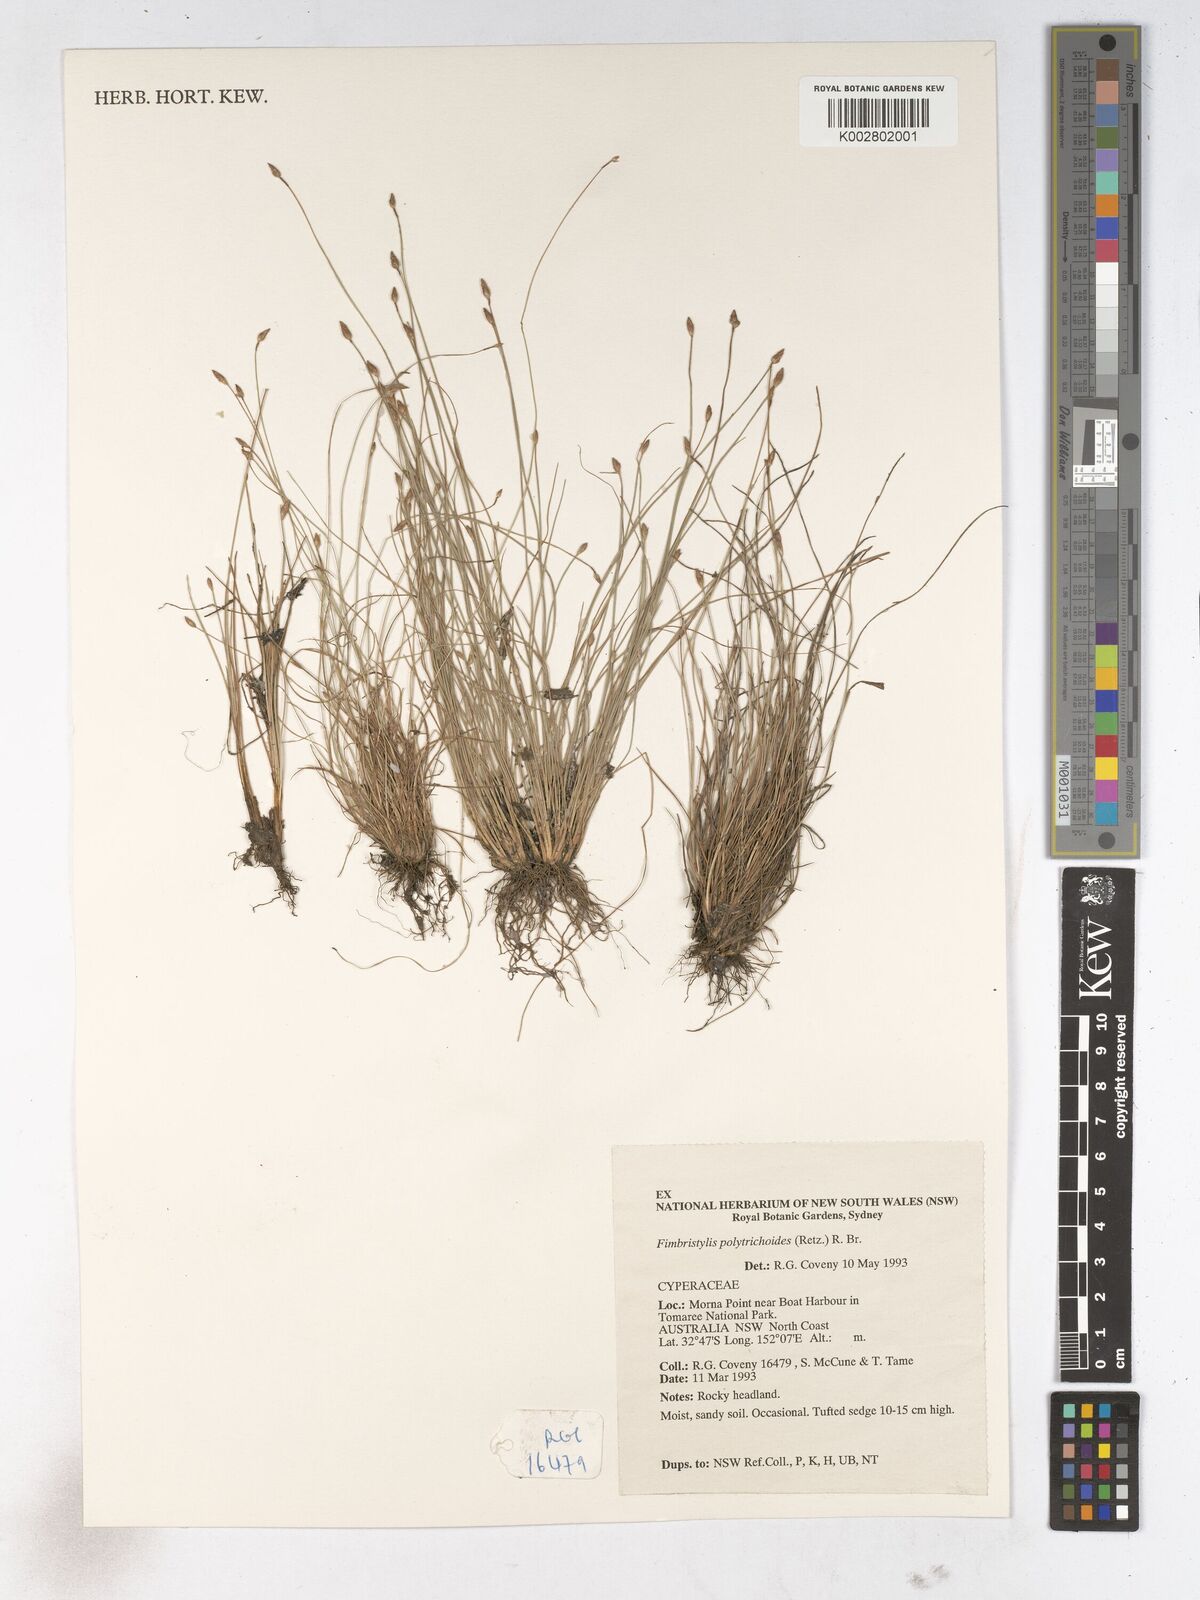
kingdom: Plantae
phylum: Tracheophyta
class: Liliopsida
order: Poales
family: Cyperaceae
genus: Fimbristylis
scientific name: Fimbristylis polytrichoides
